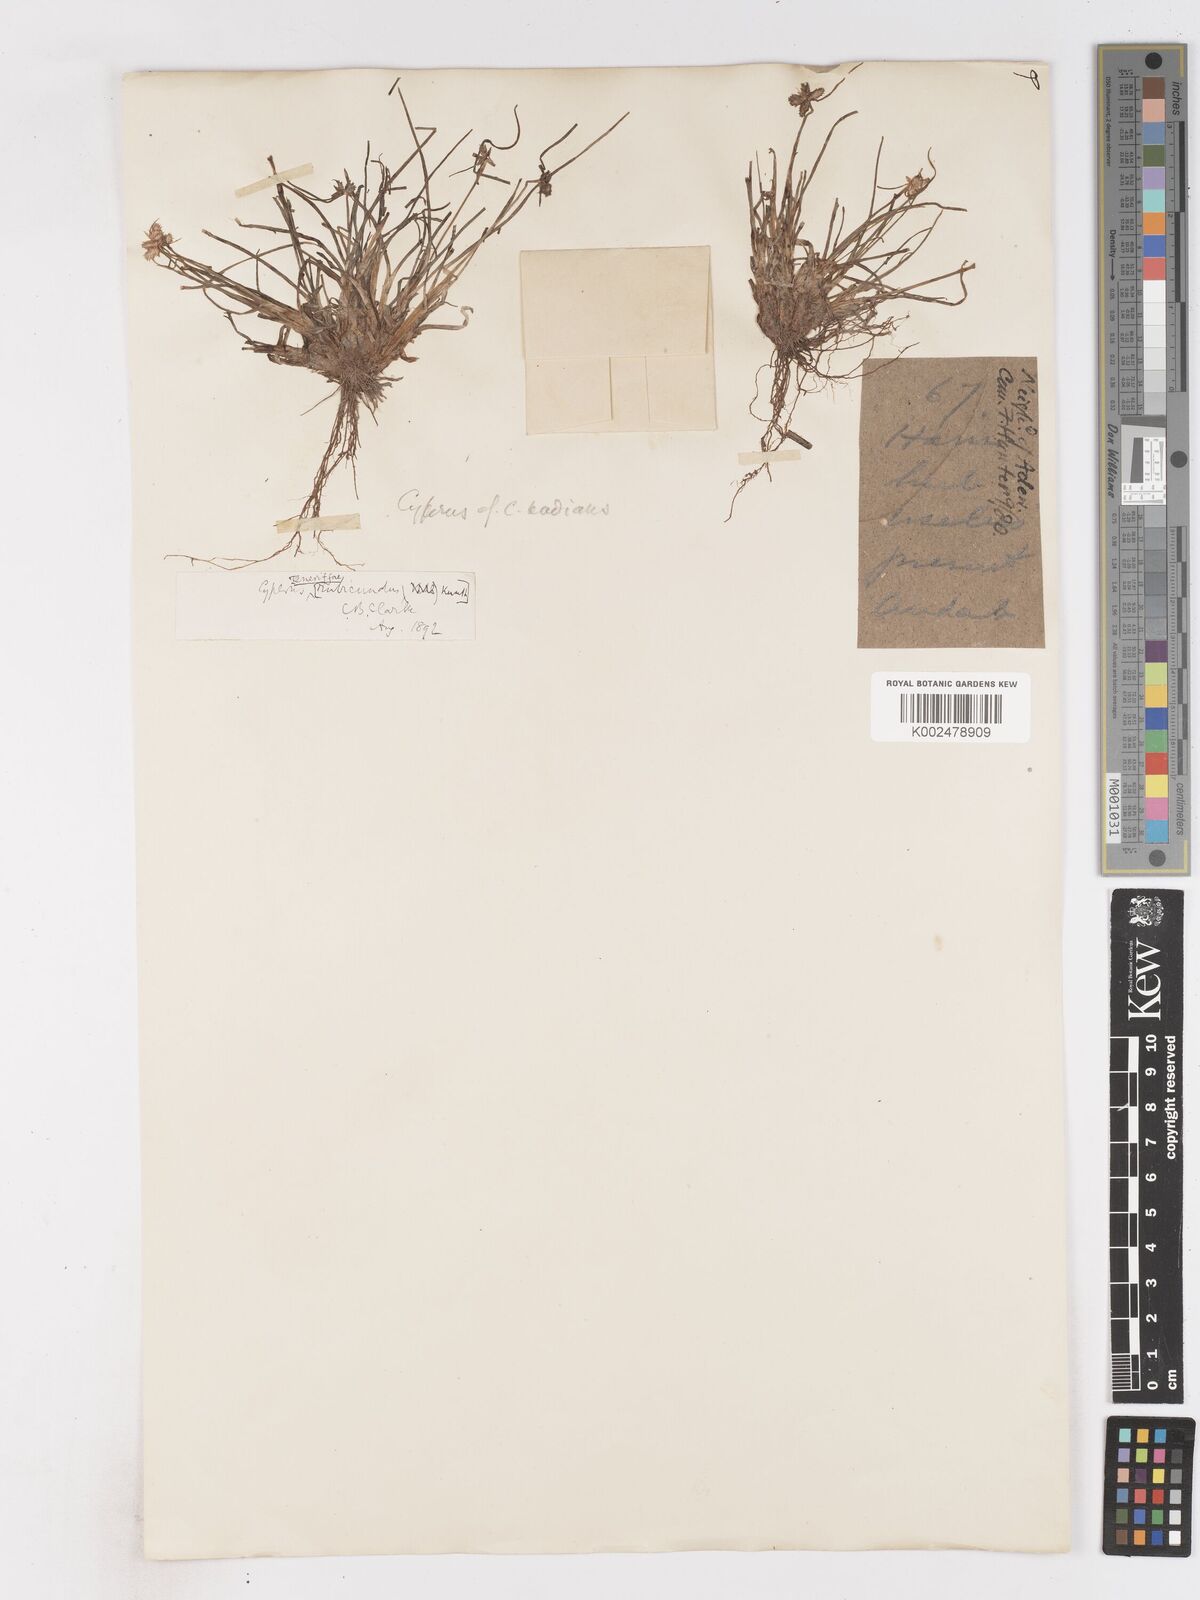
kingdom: Plantae
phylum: Tracheophyta
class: Liliopsida
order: Poales
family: Cyperaceae
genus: Cyperus
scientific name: Cyperus rubicundus
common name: Coco-grass
